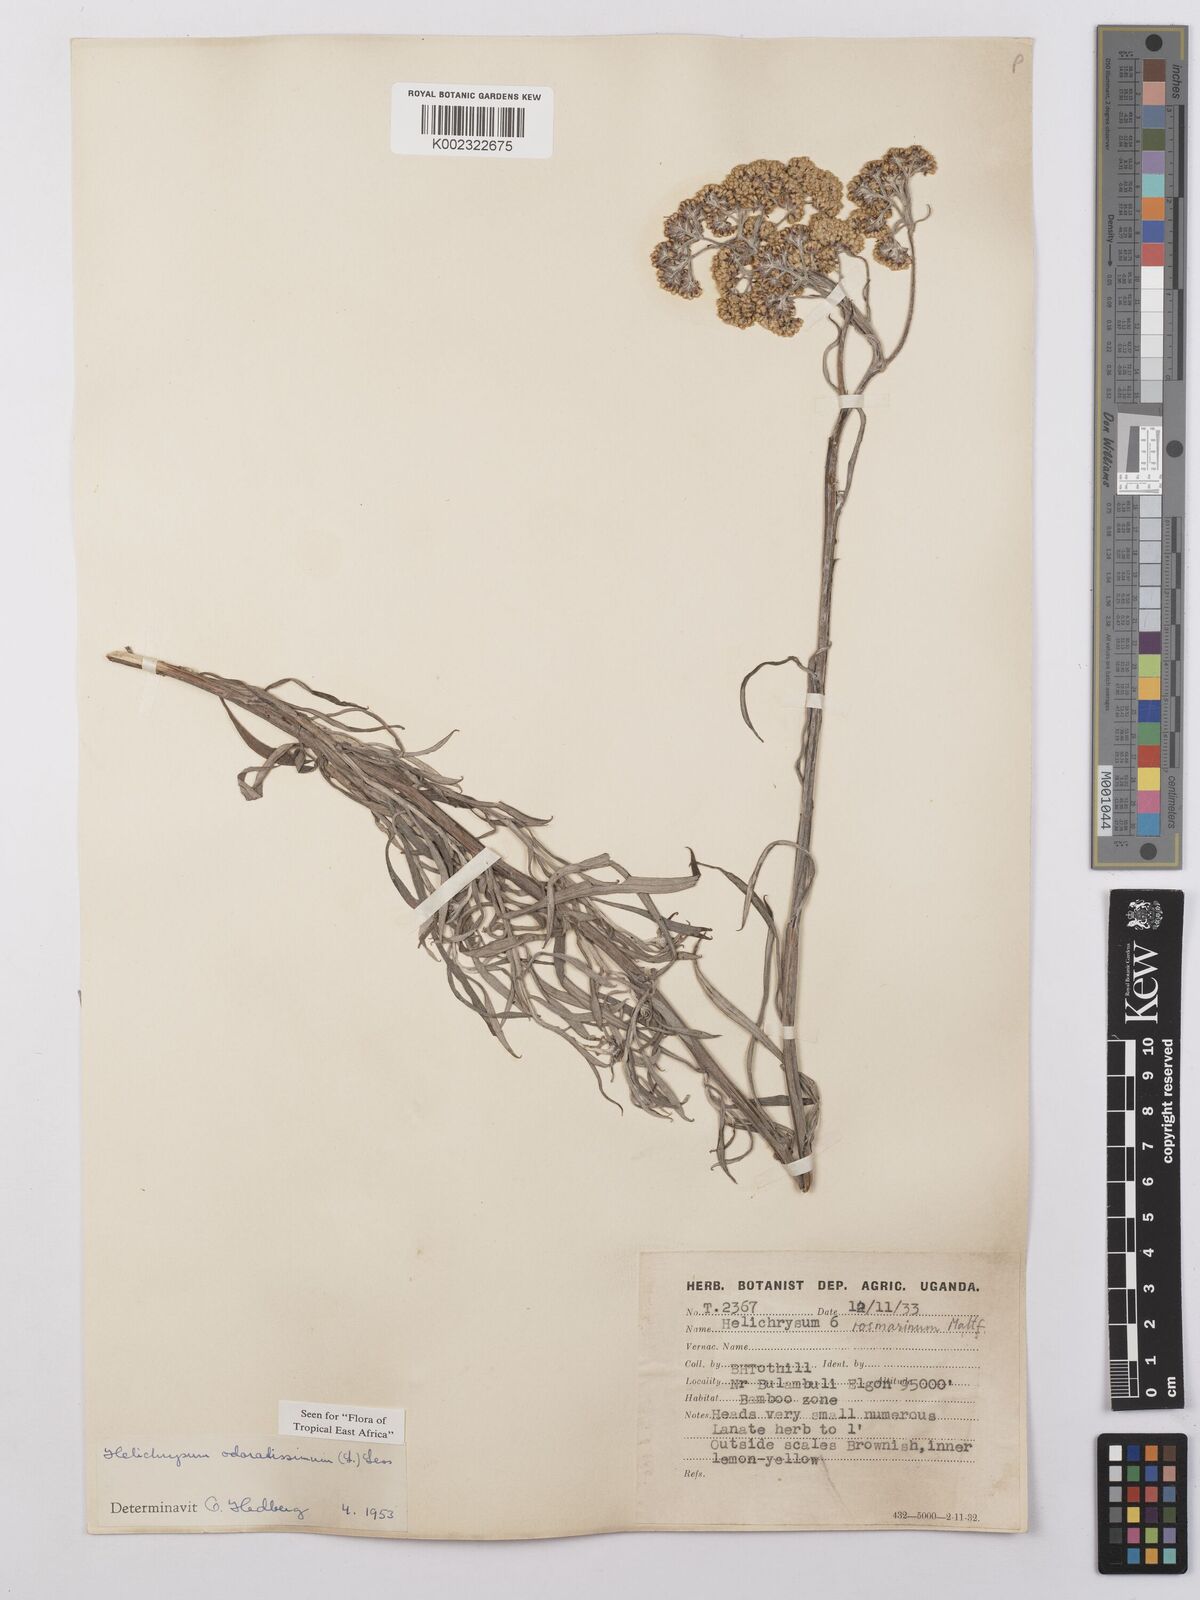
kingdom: Plantae
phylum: Tracheophyta
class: Magnoliopsida
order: Asterales
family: Asteraceae
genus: Helichrysum
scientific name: Helichrysum odoratissimum
